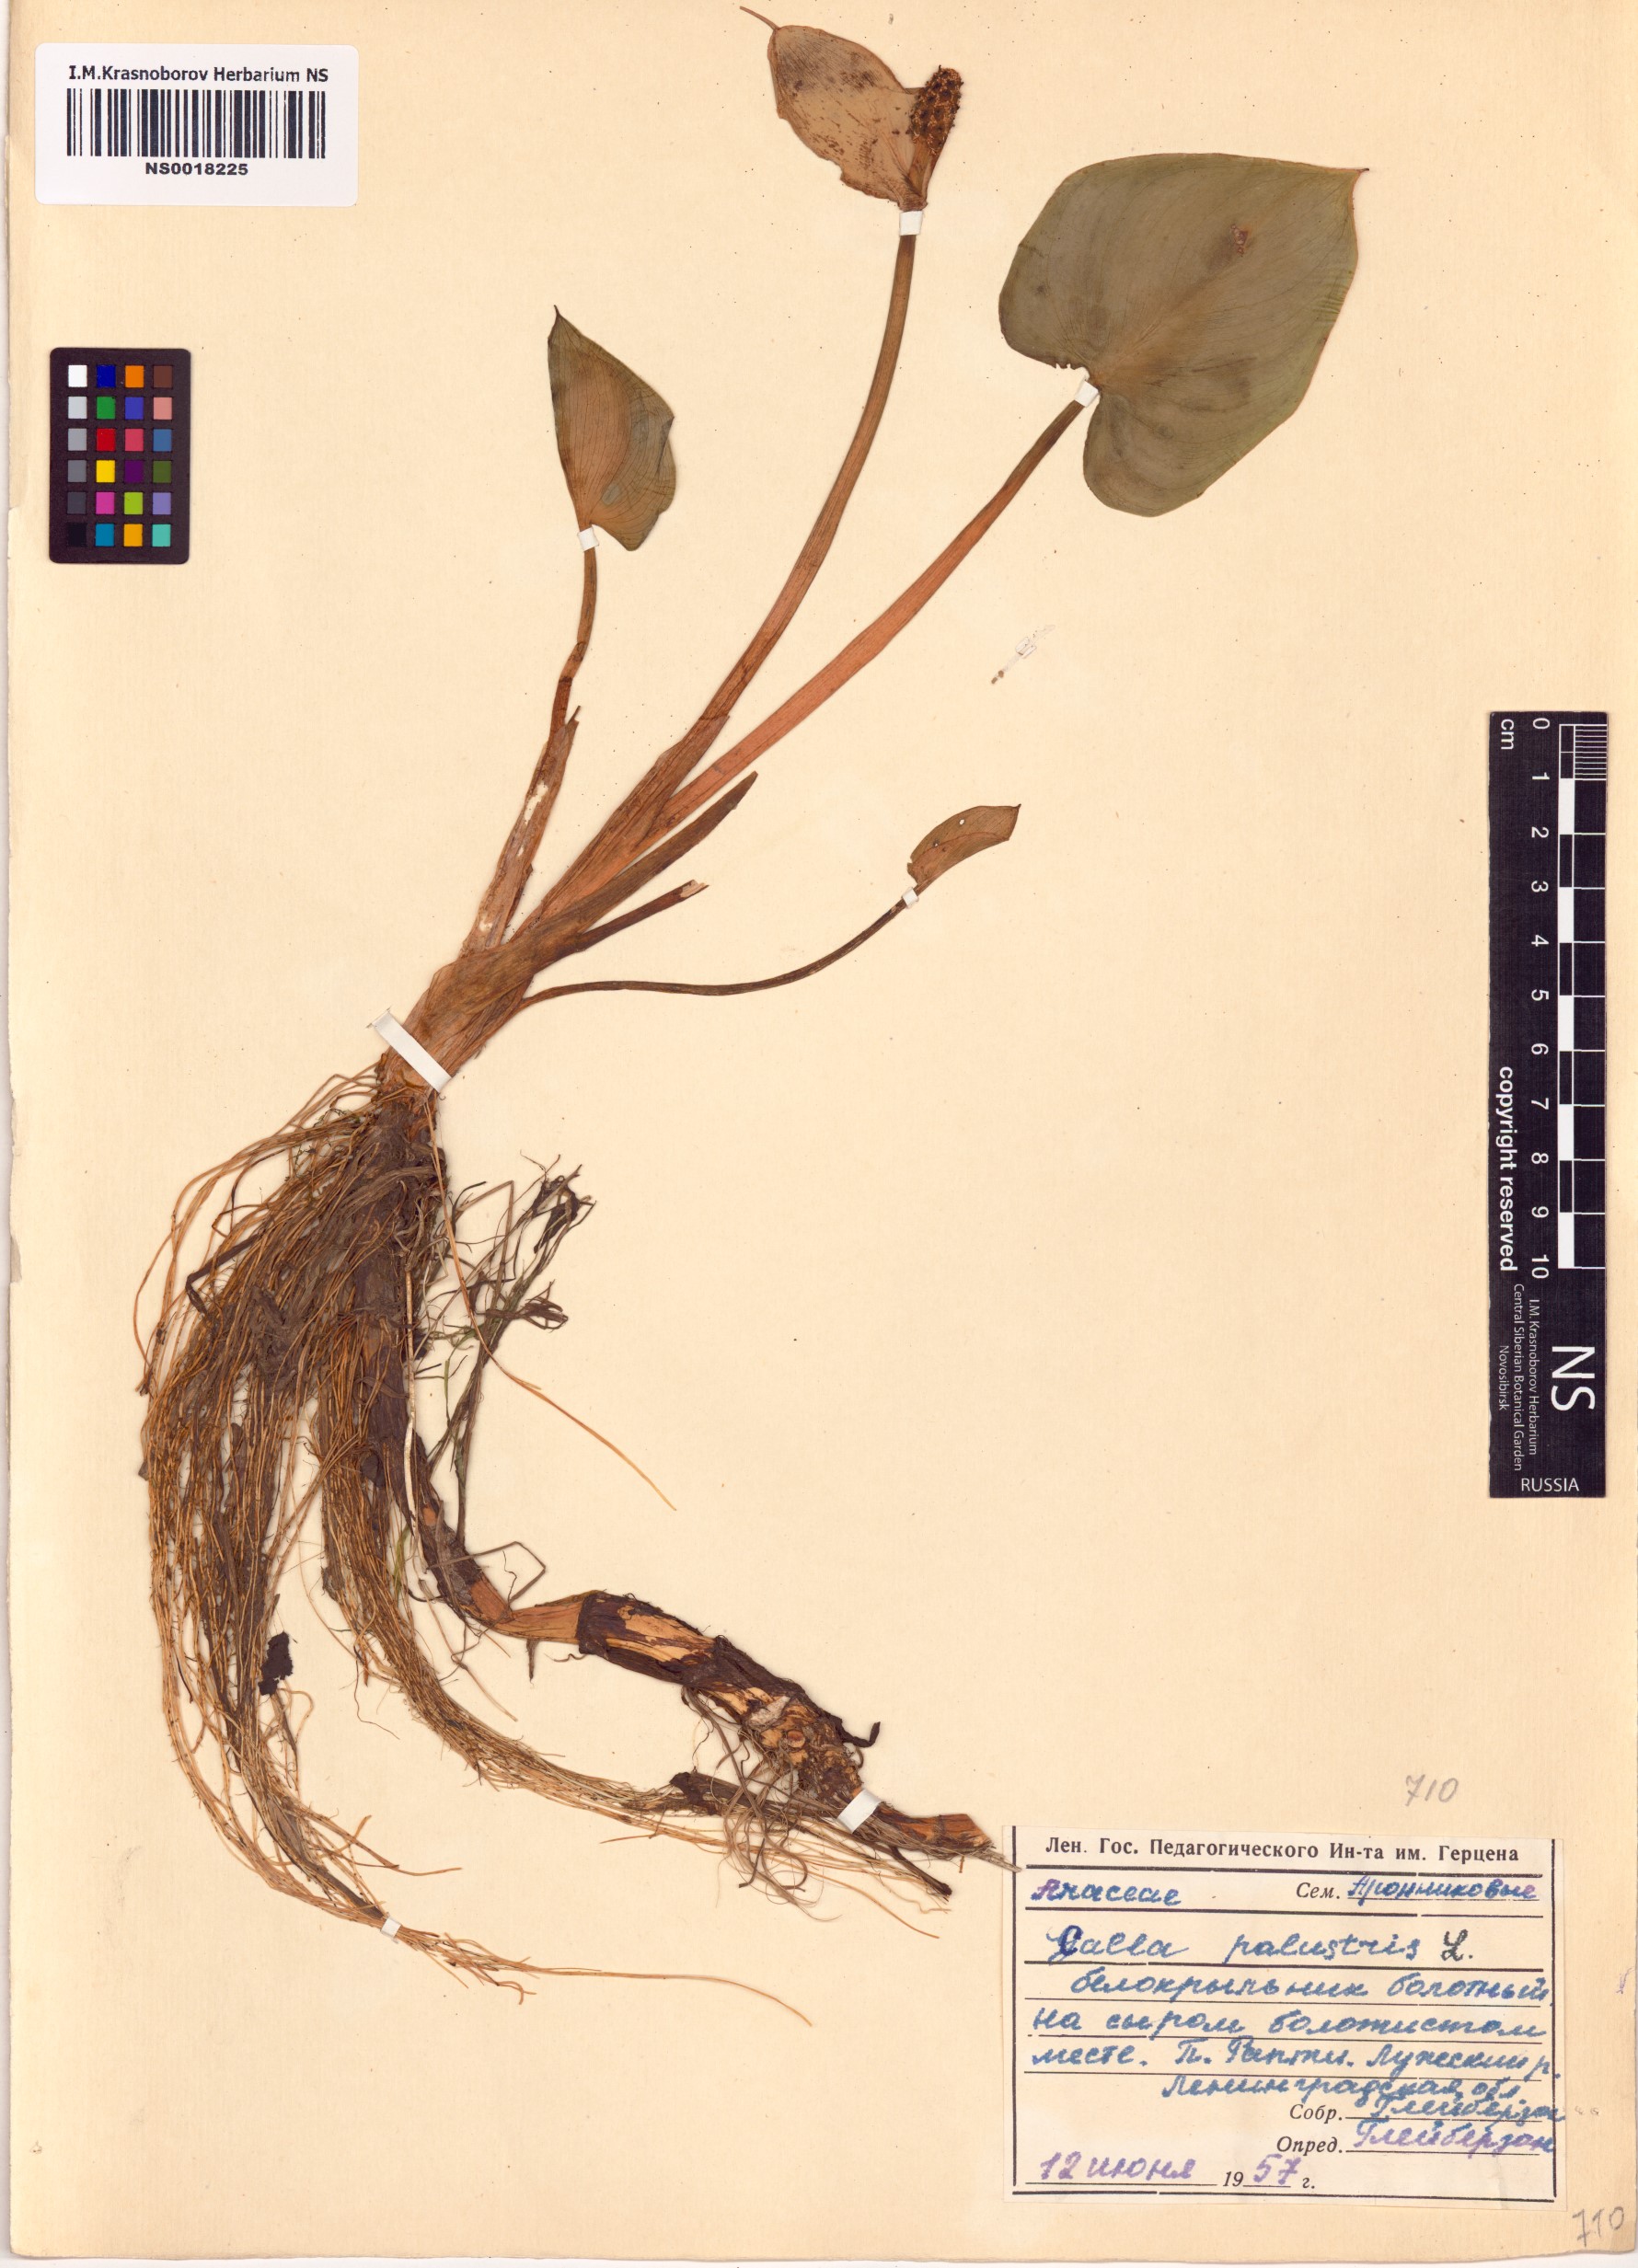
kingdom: Plantae
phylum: Tracheophyta
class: Liliopsida
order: Alismatales
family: Araceae
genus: Calla
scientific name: Calla palustris
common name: Bog arum
